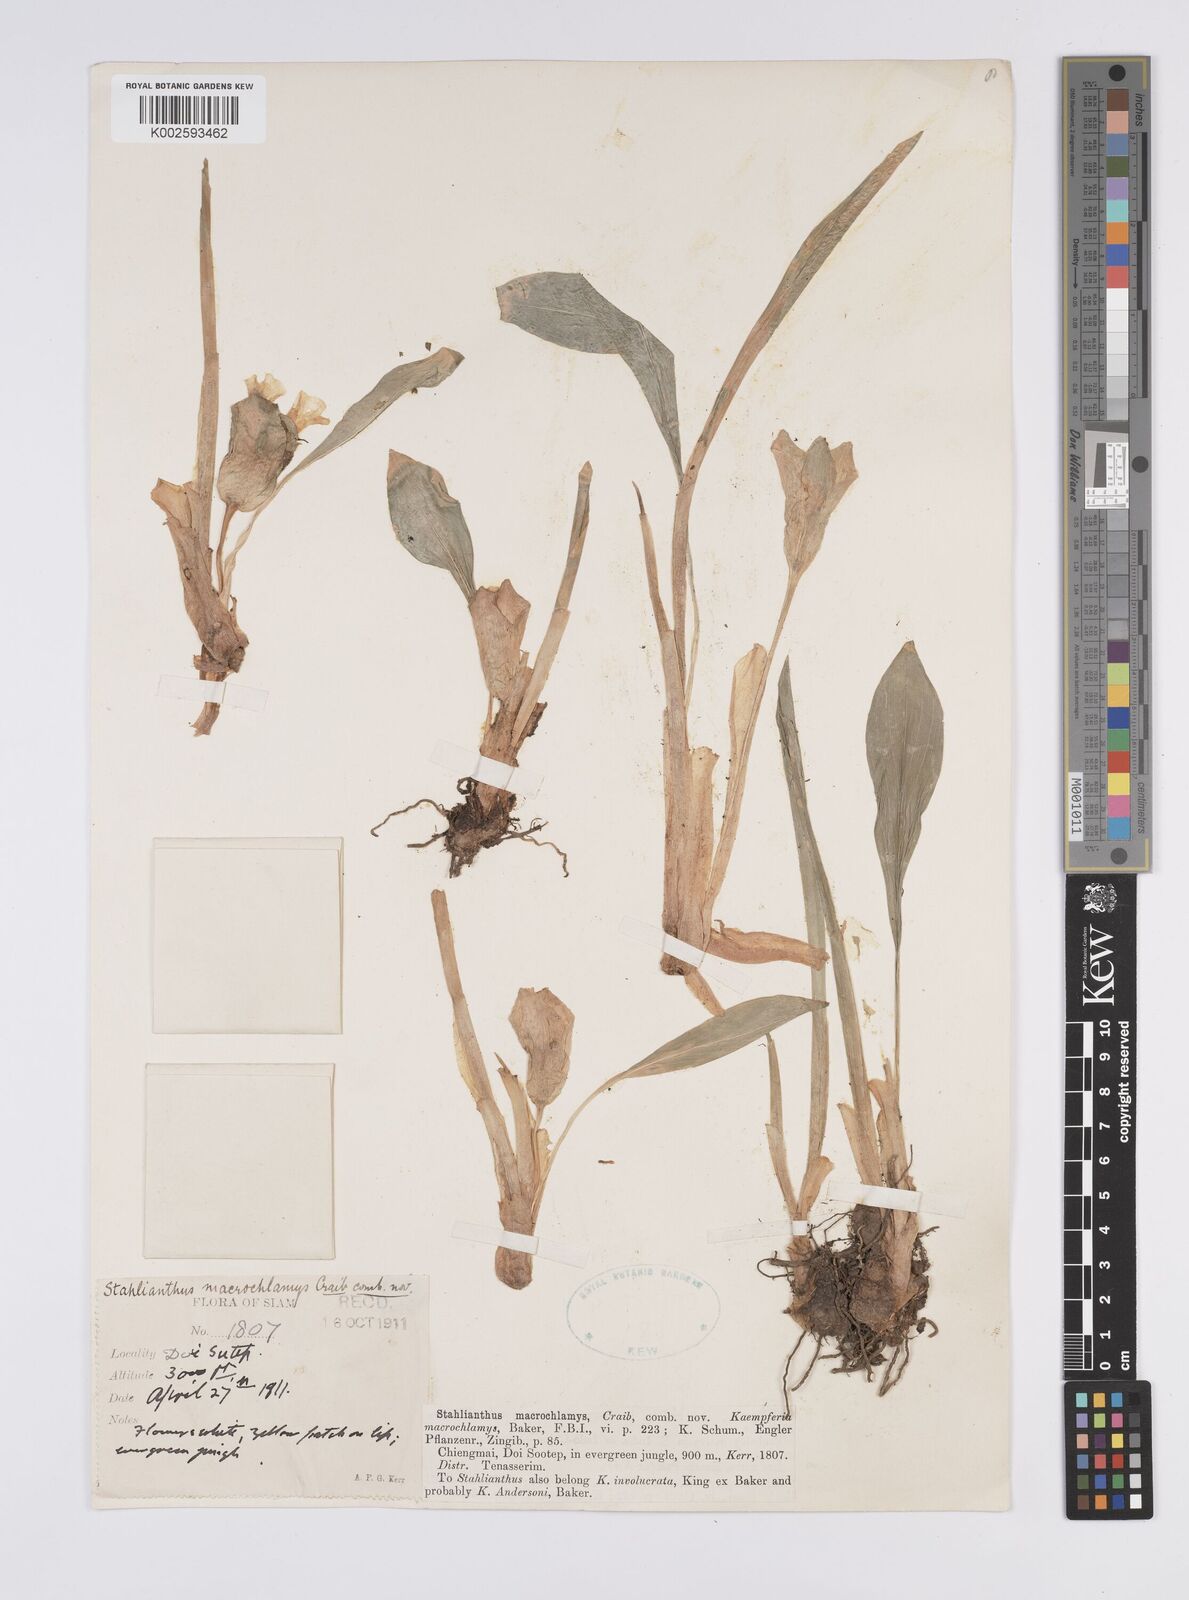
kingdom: Plantae
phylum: Tracheophyta
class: Liliopsida
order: Zingiberales
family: Zingiberaceae
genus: Curcuma
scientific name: Curcuma macrochlamys
